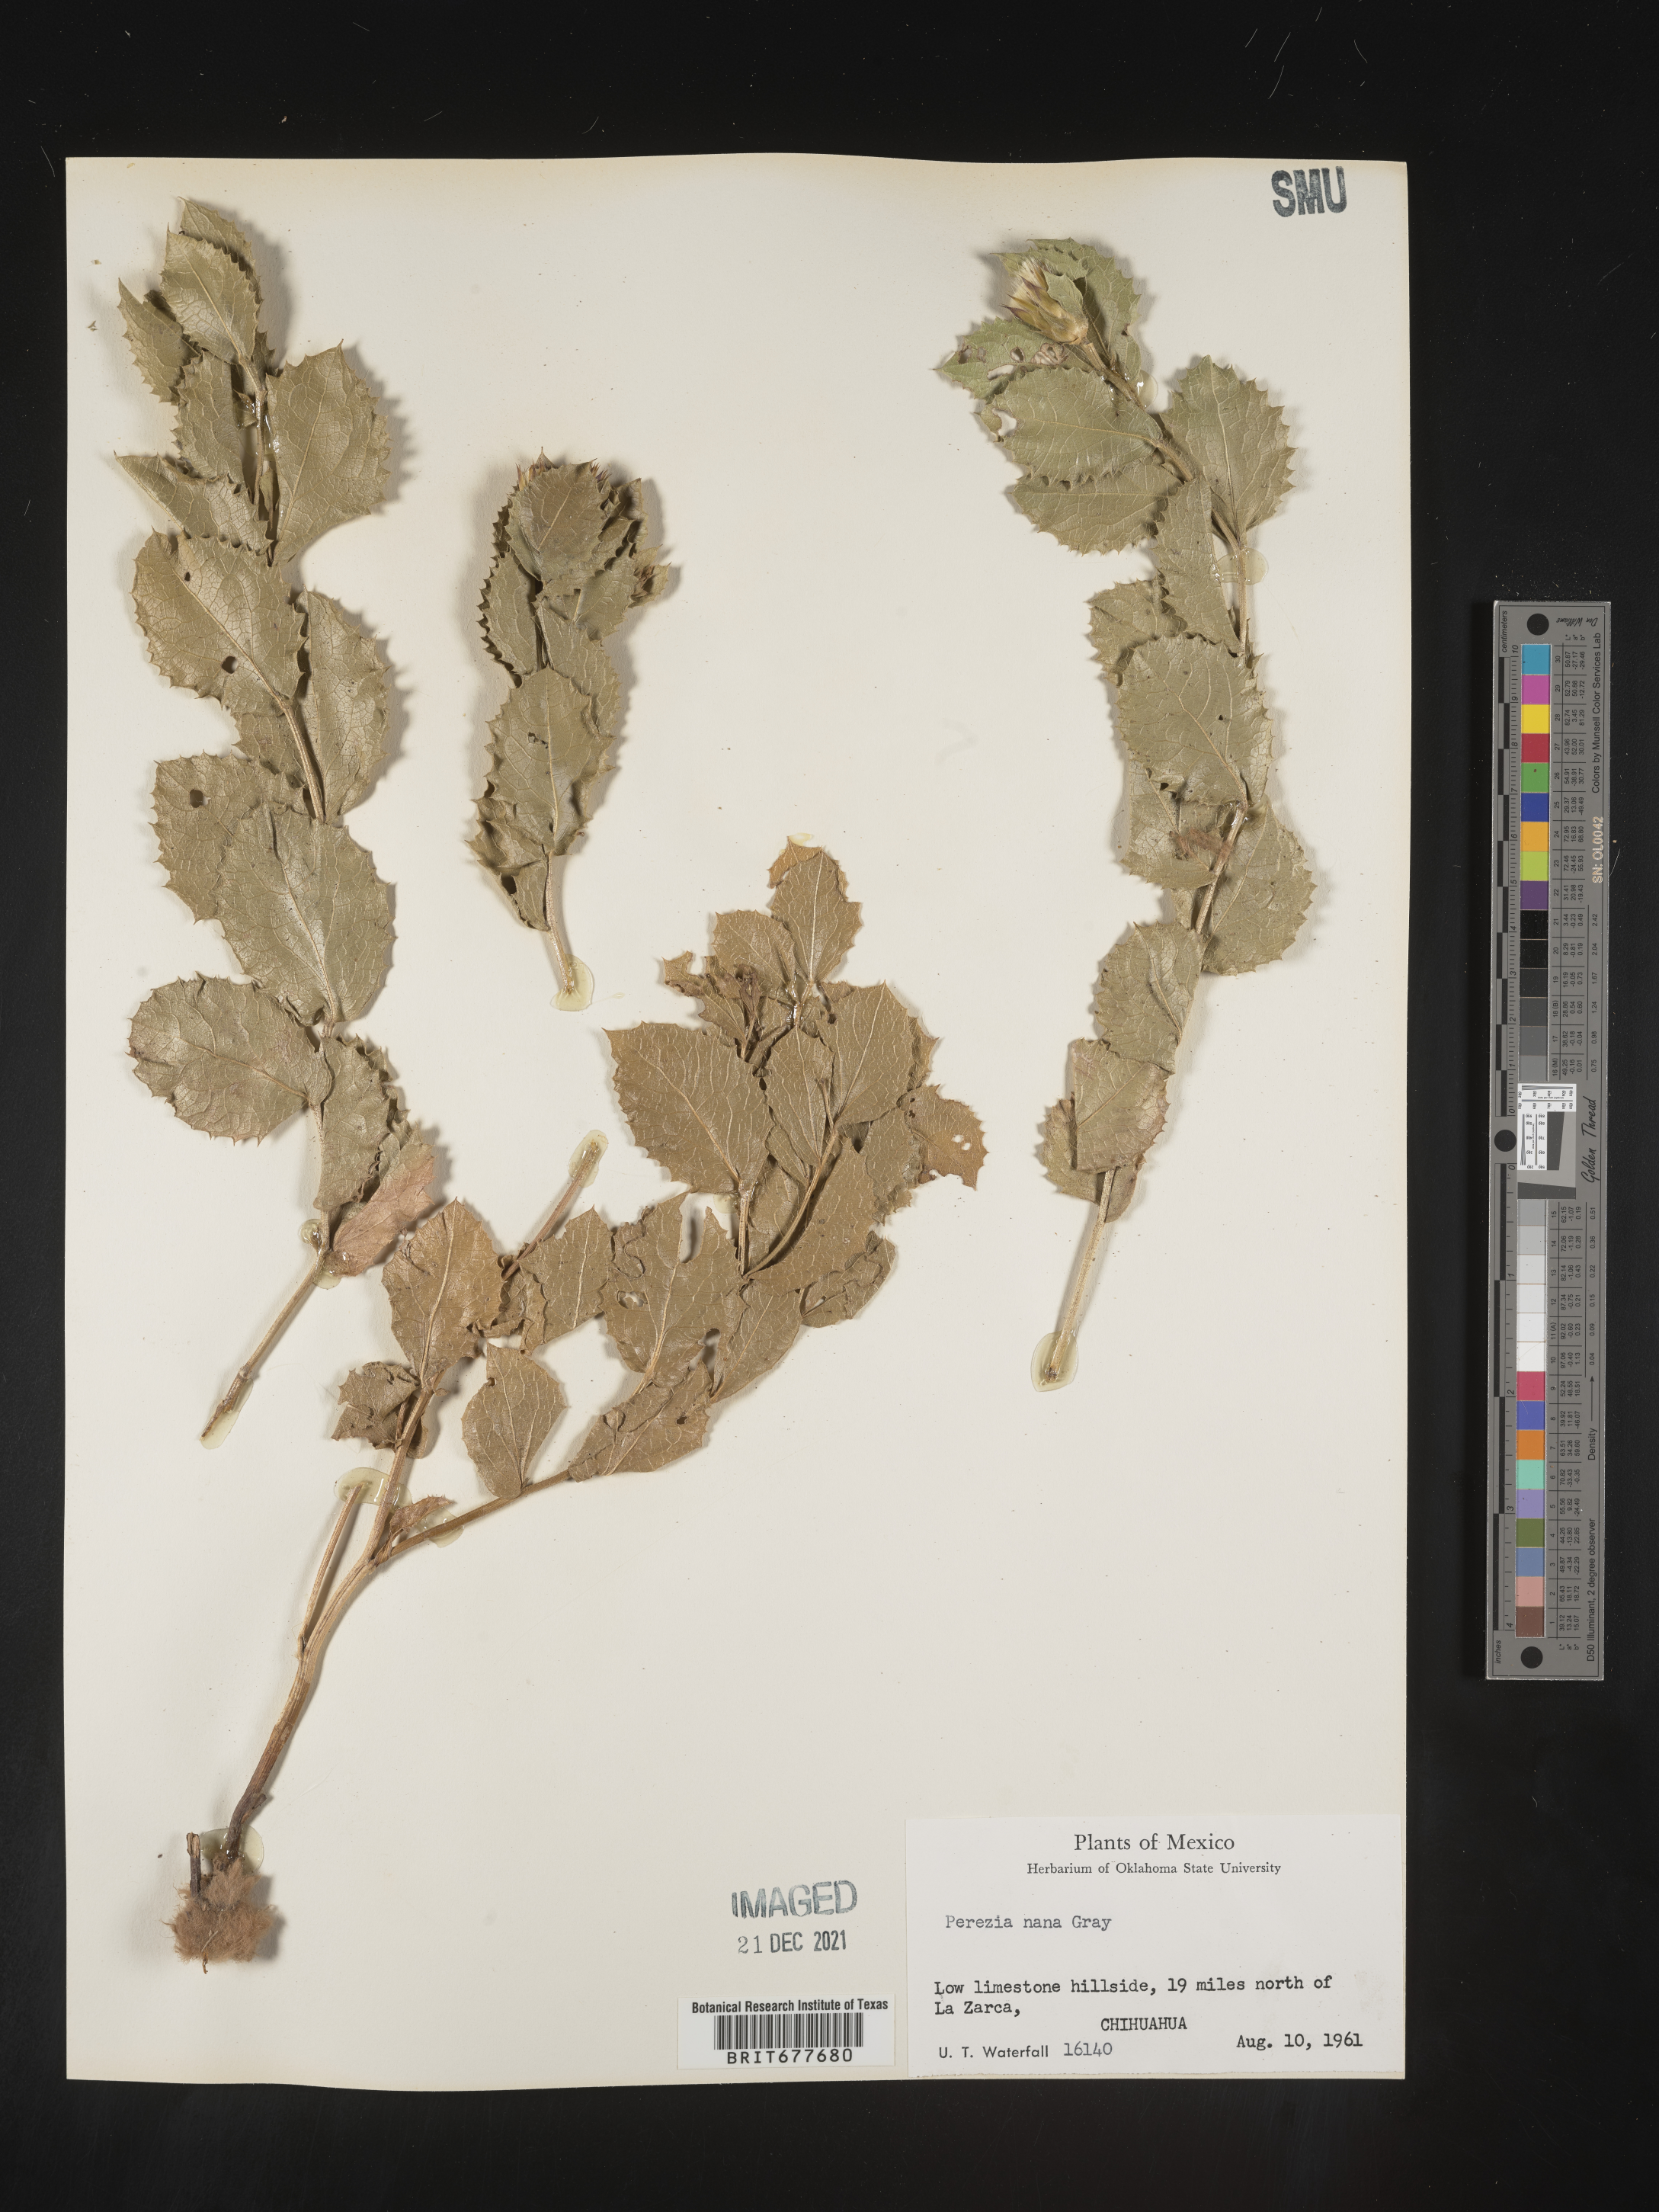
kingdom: Plantae
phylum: Tracheophyta
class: Magnoliopsida
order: Asterales
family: Asteraceae
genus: Perezia
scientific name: Perezia
